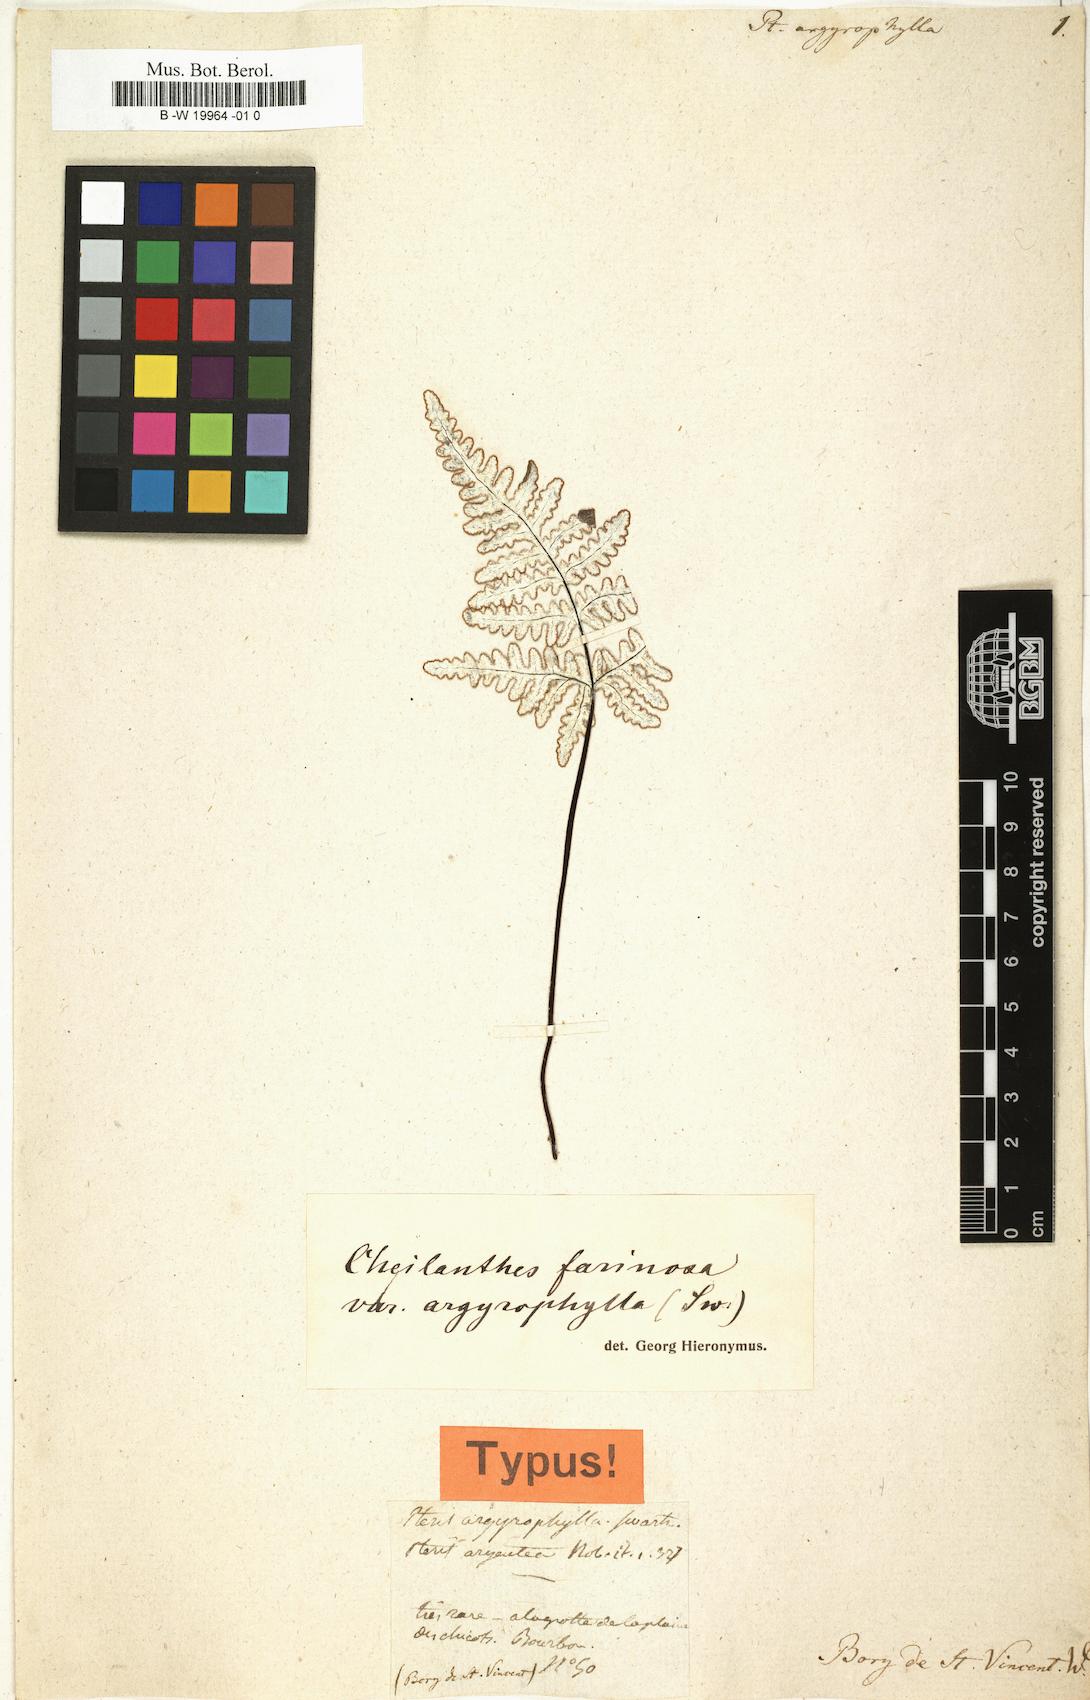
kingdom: Plantae
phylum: Tracheophyta
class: Polypodiopsida
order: Polypodiales
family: Pteridaceae
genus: Aleuritopteris
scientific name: Aleuritopteris farinosa
